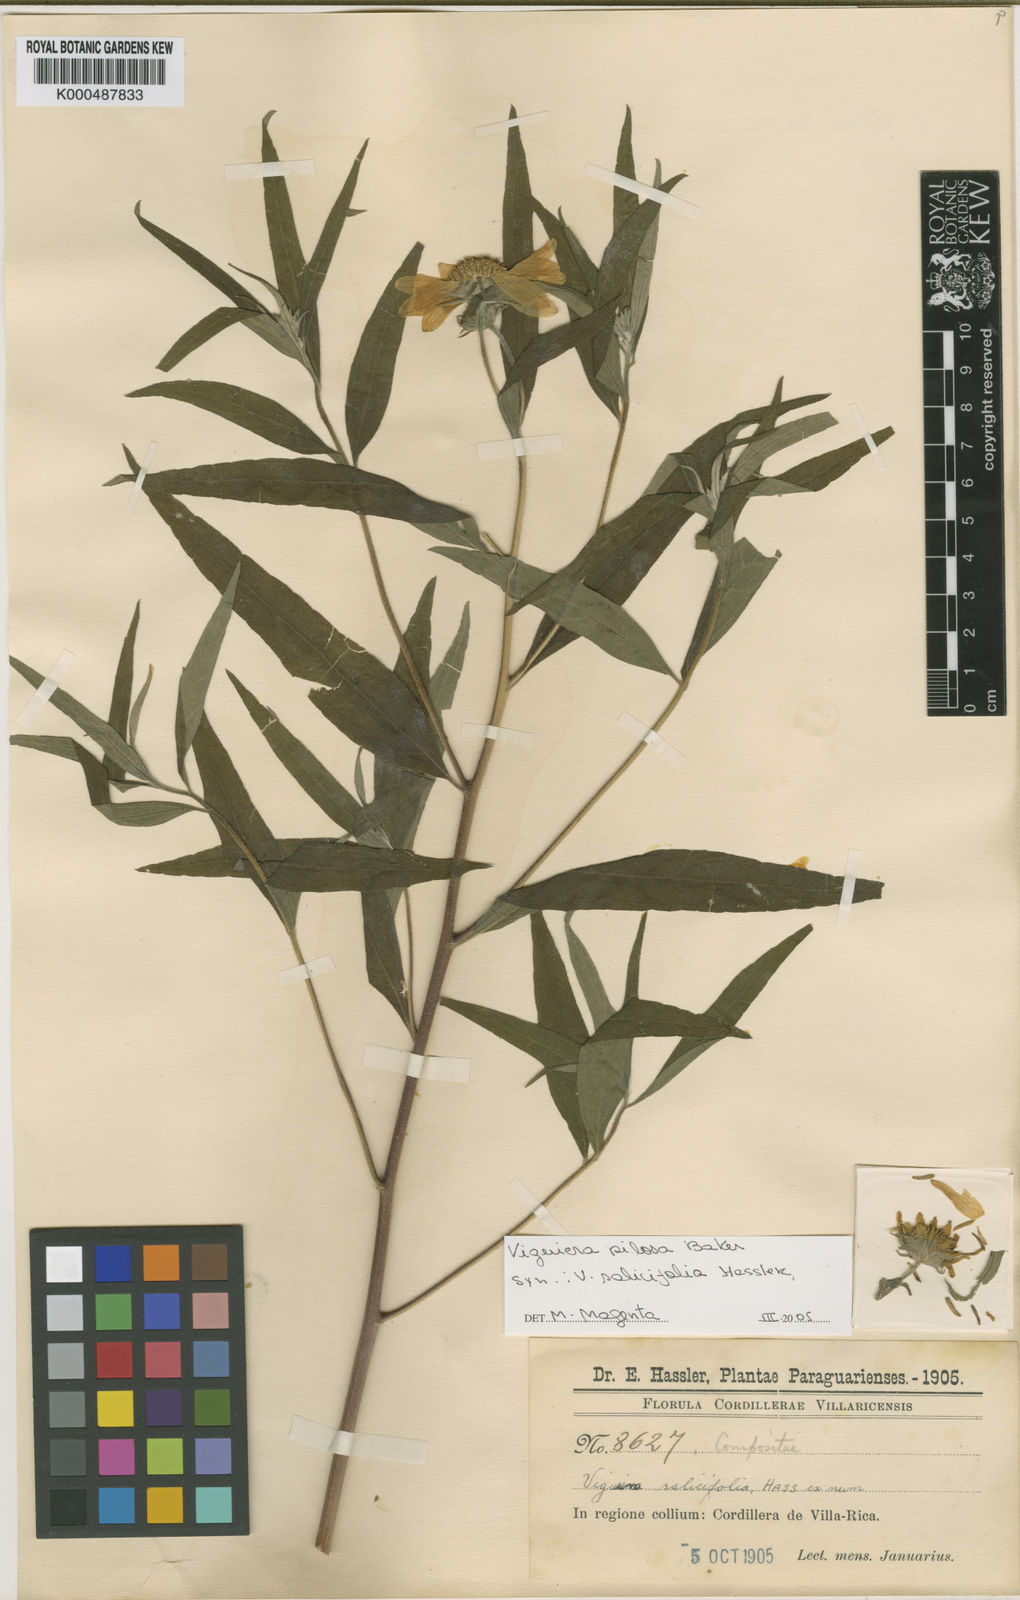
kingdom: Plantae
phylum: Tracheophyta
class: Magnoliopsida
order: Asterales
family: Asteraceae
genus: Aldama
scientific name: Aldama salicifolia
